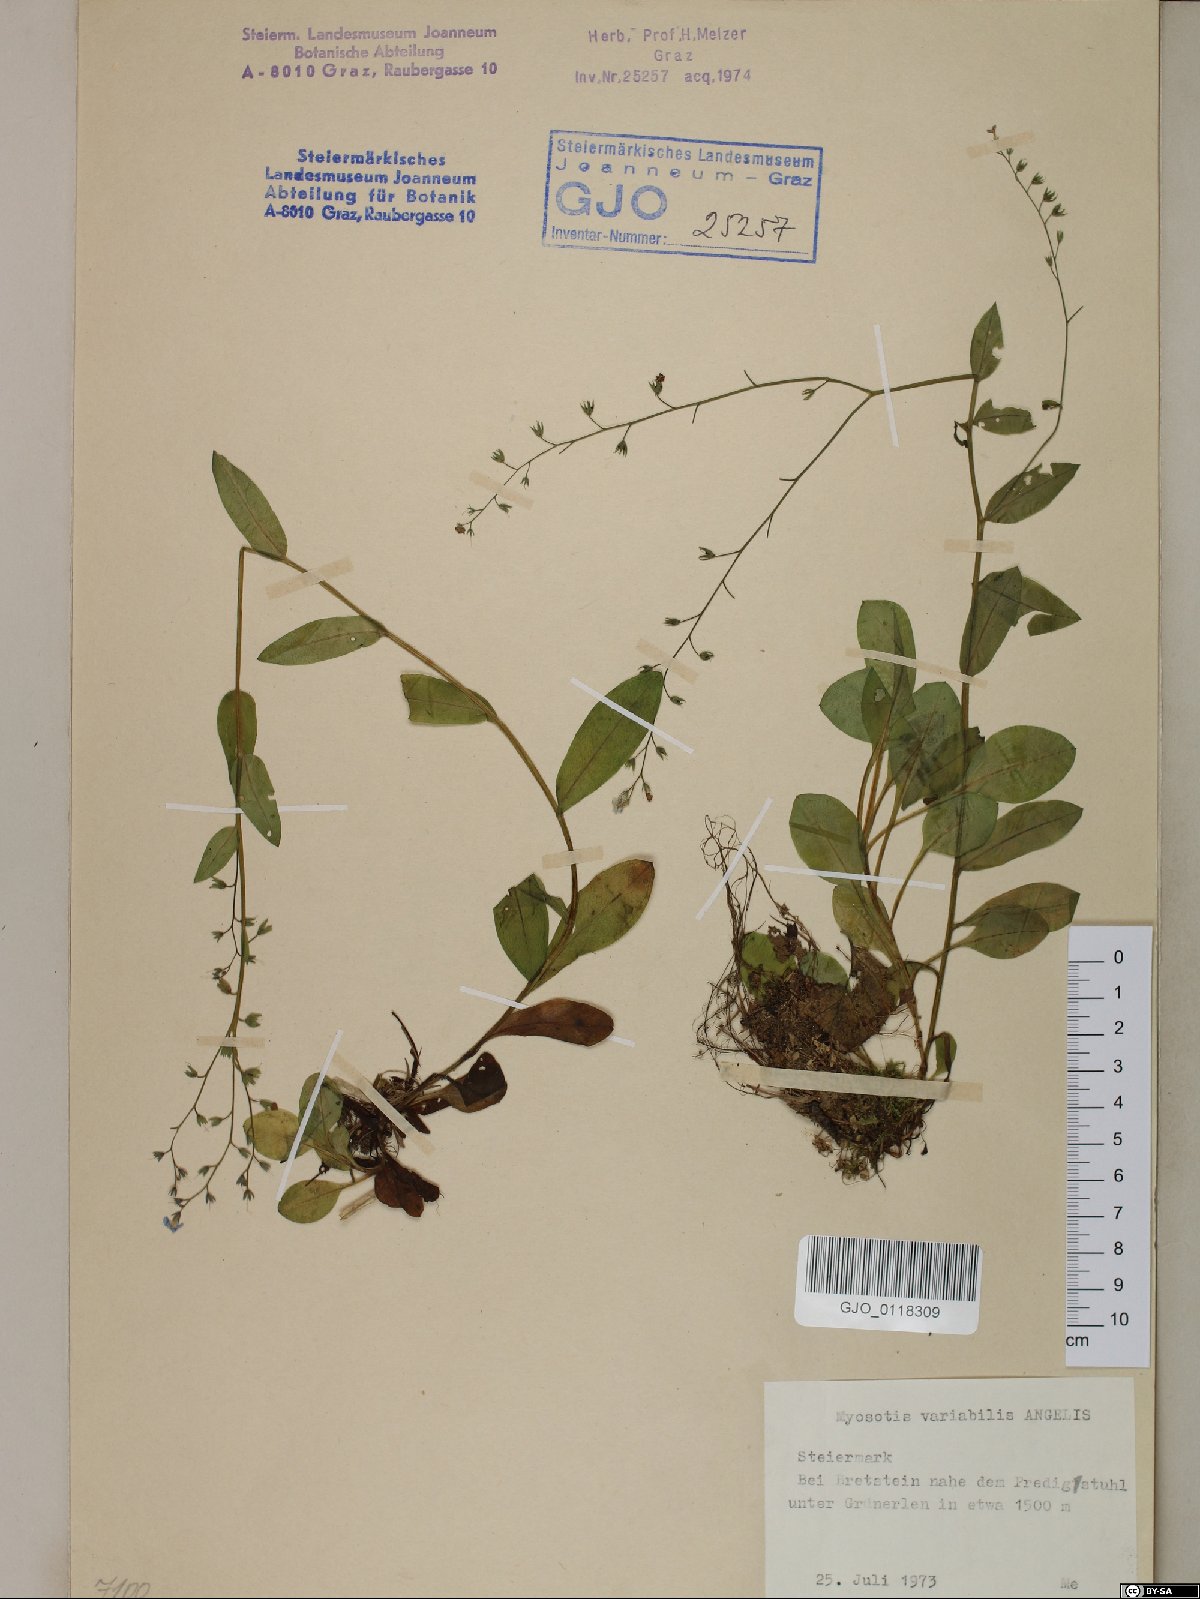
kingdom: Plantae
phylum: Tracheophyta
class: Magnoliopsida
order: Boraginales
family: Boraginaceae
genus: Myosotis
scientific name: Myosotis decumbens
